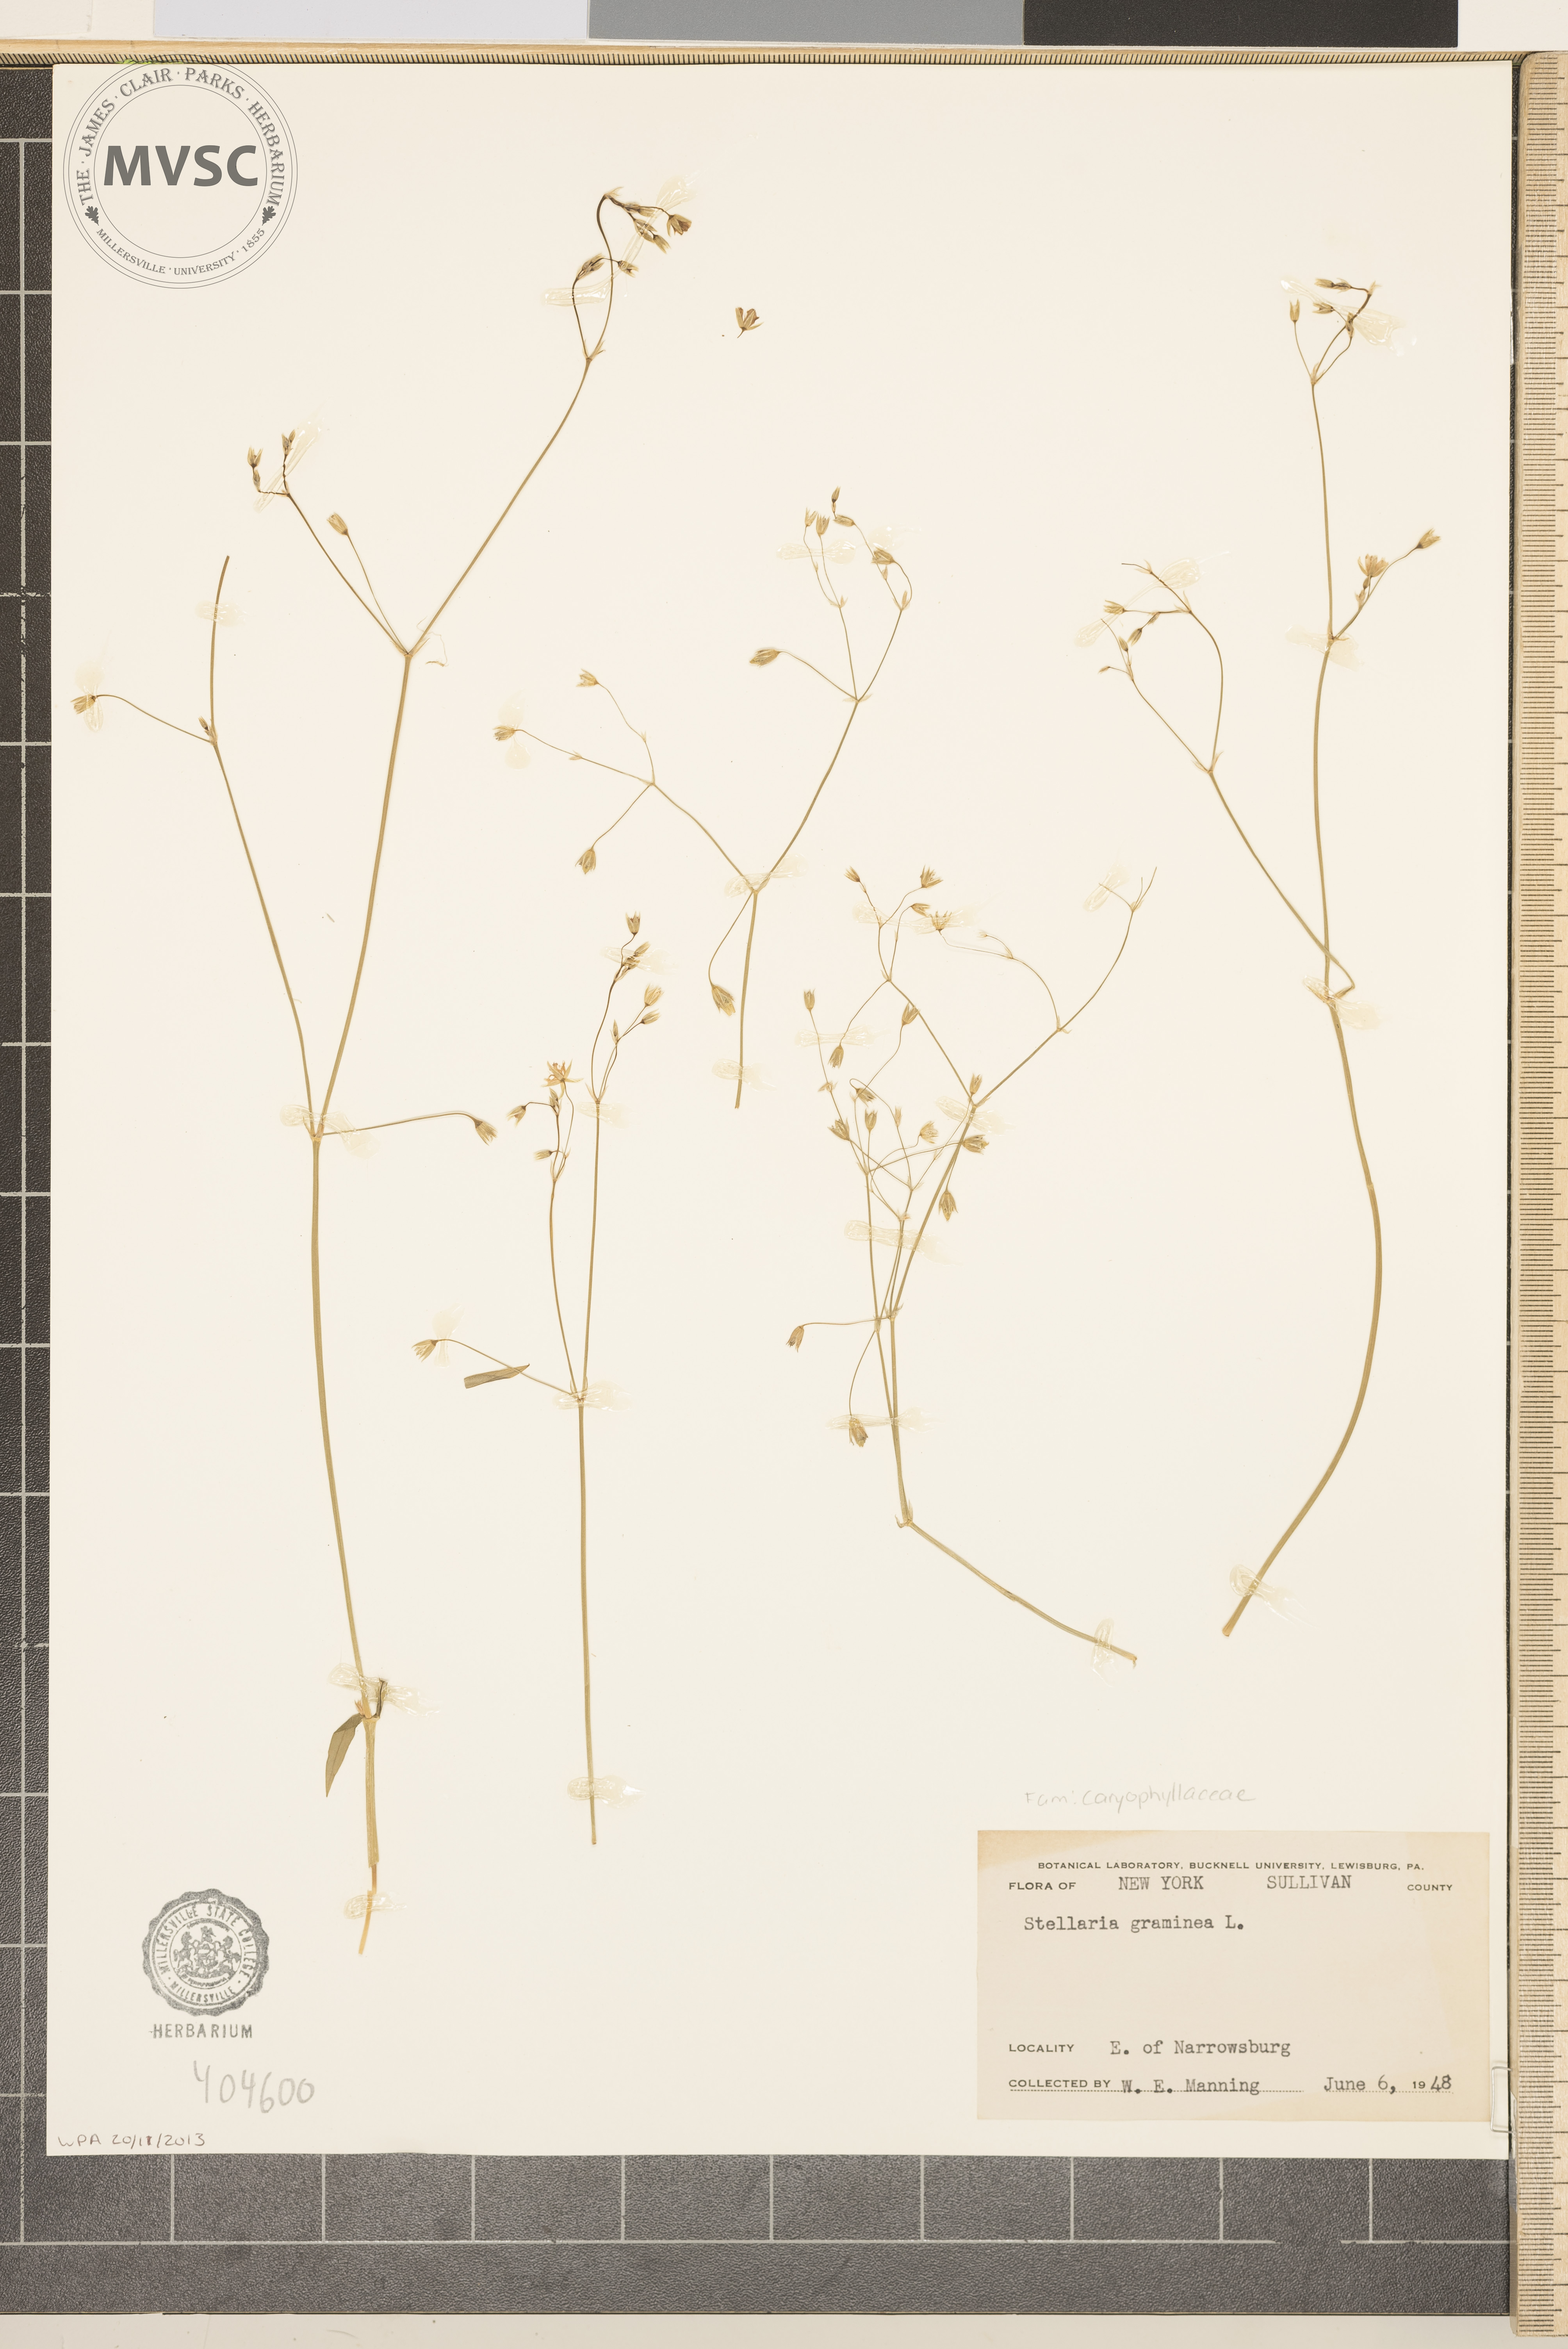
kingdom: Plantae
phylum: Tracheophyta
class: Magnoliopsida
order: Caryophyllales
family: Caryophyllaceae
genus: Stellaria
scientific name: Stellaria graminea
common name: Grass-like starwort
